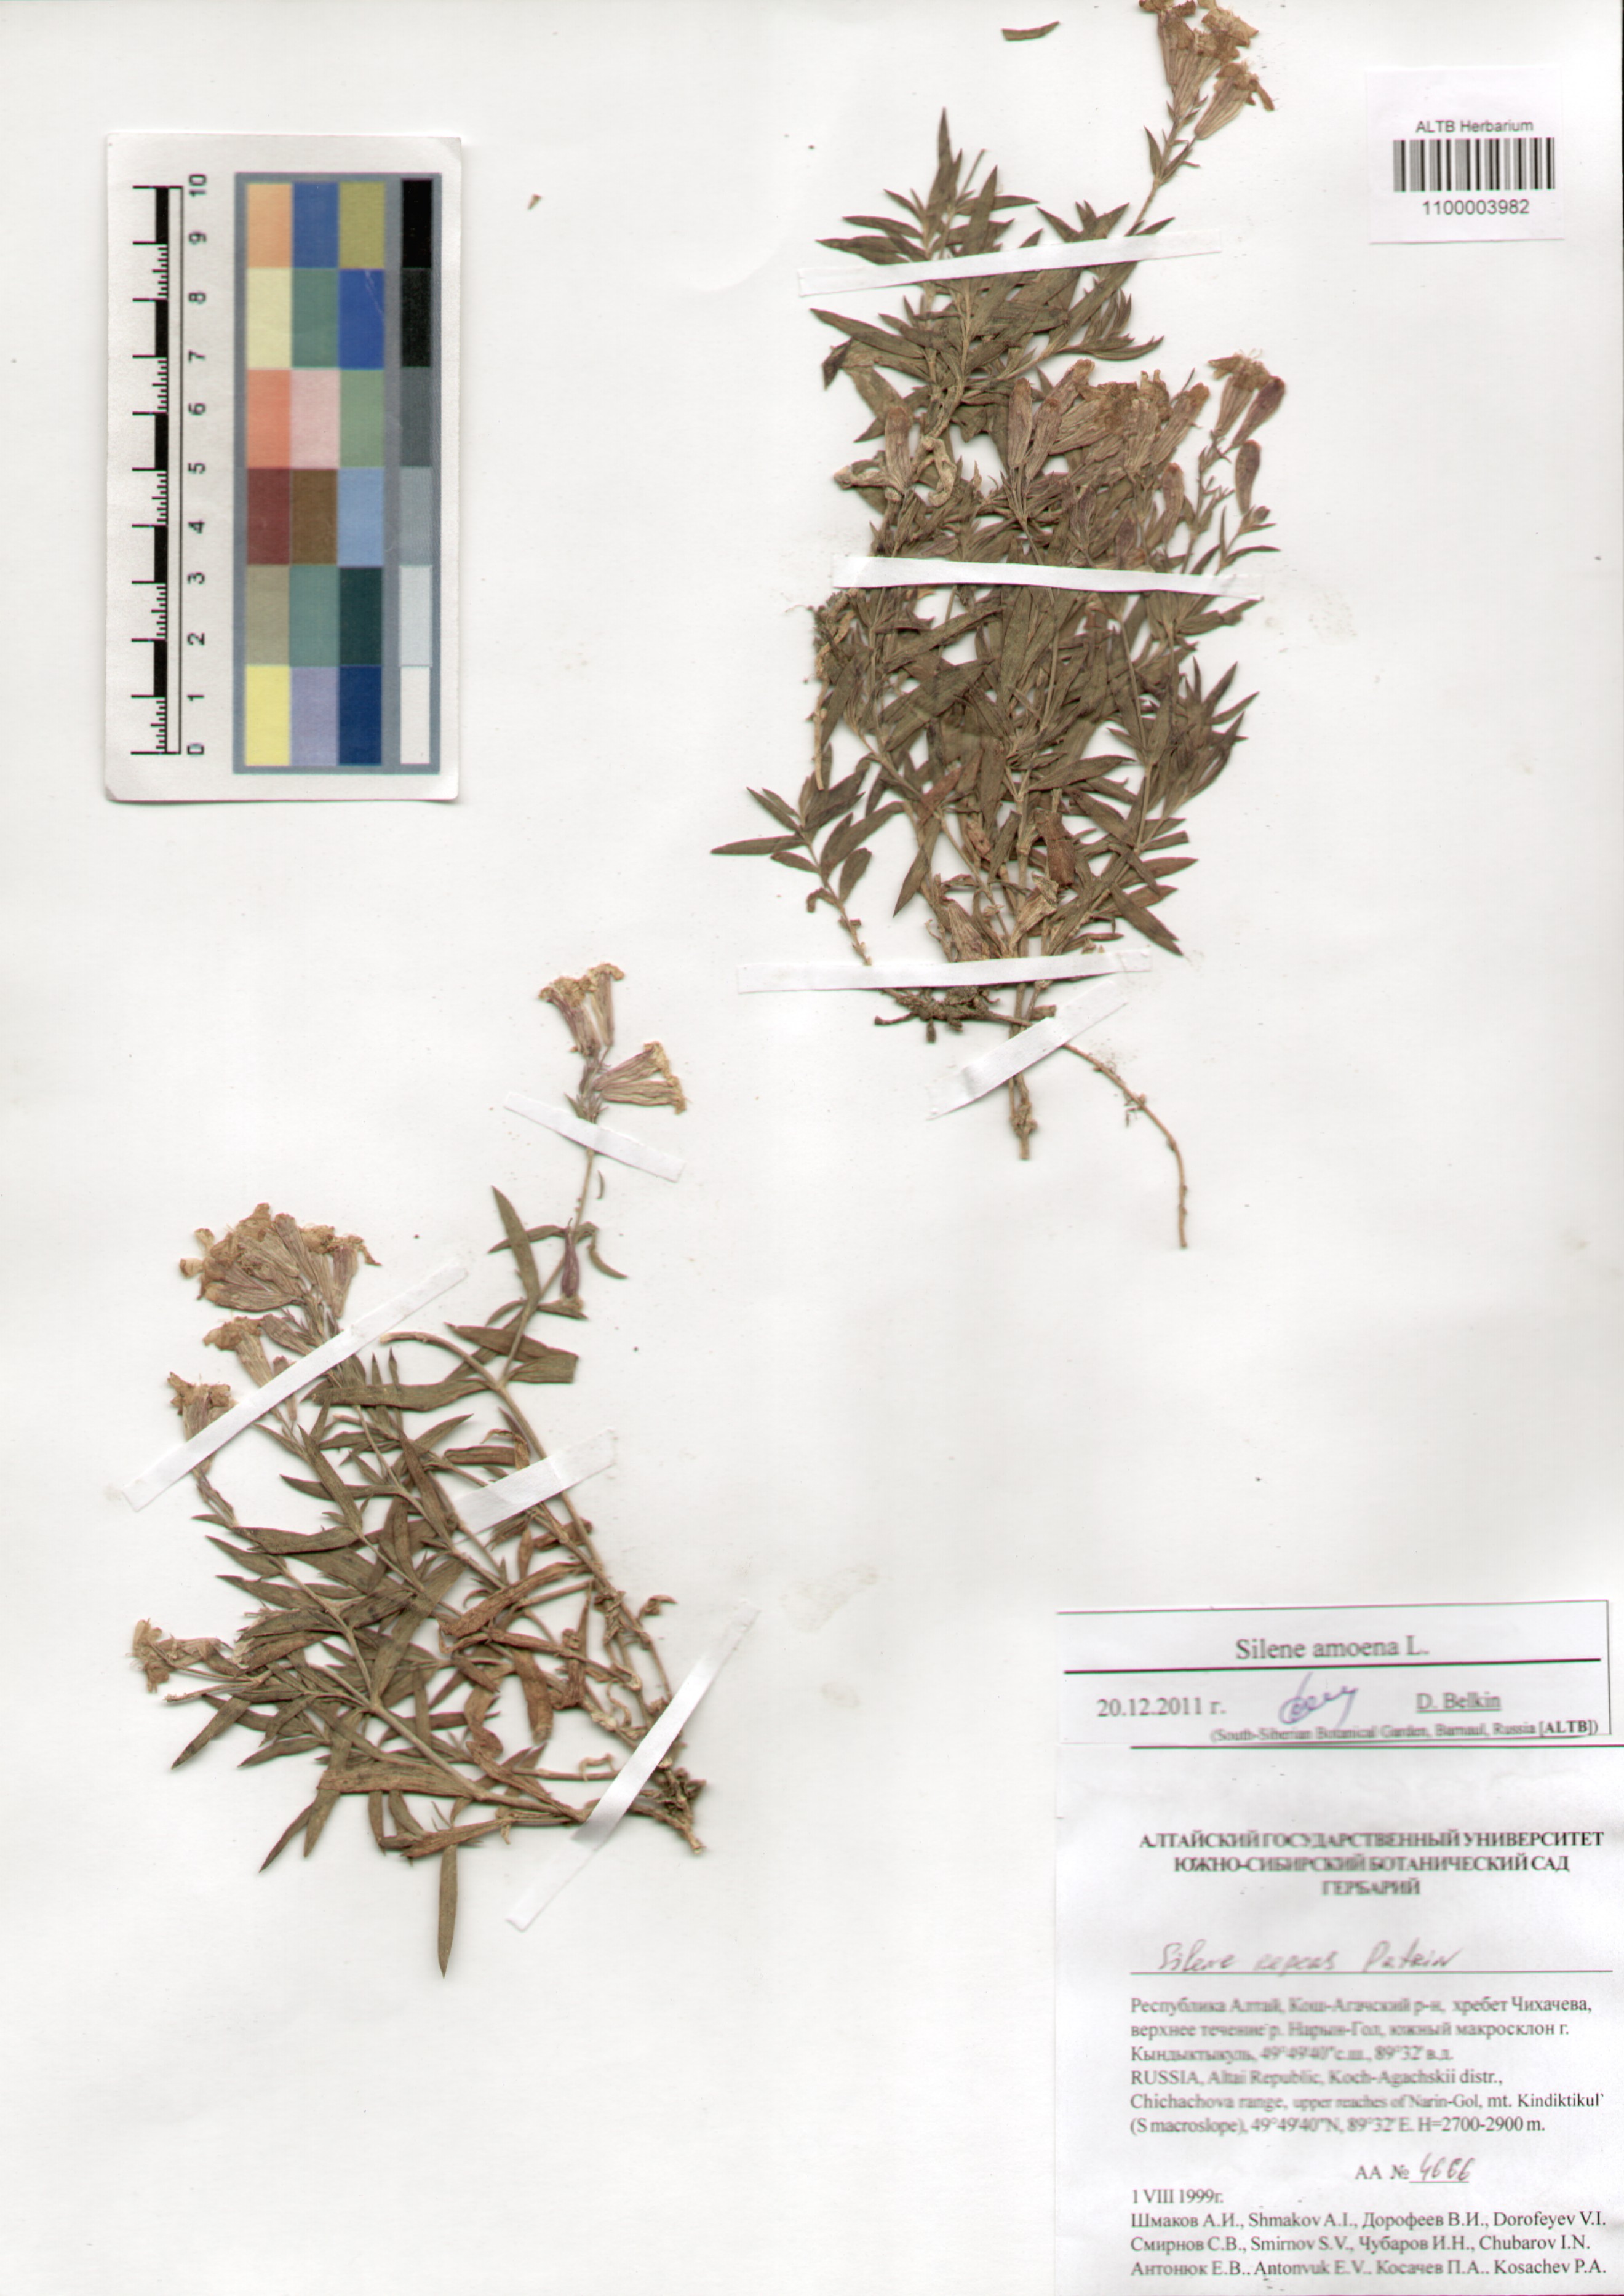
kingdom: Plantae
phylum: Tracheophyta
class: Magnoliopsida
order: Caryophyllales
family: Caryophyllaceae
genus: Silene
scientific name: Silene amoena
